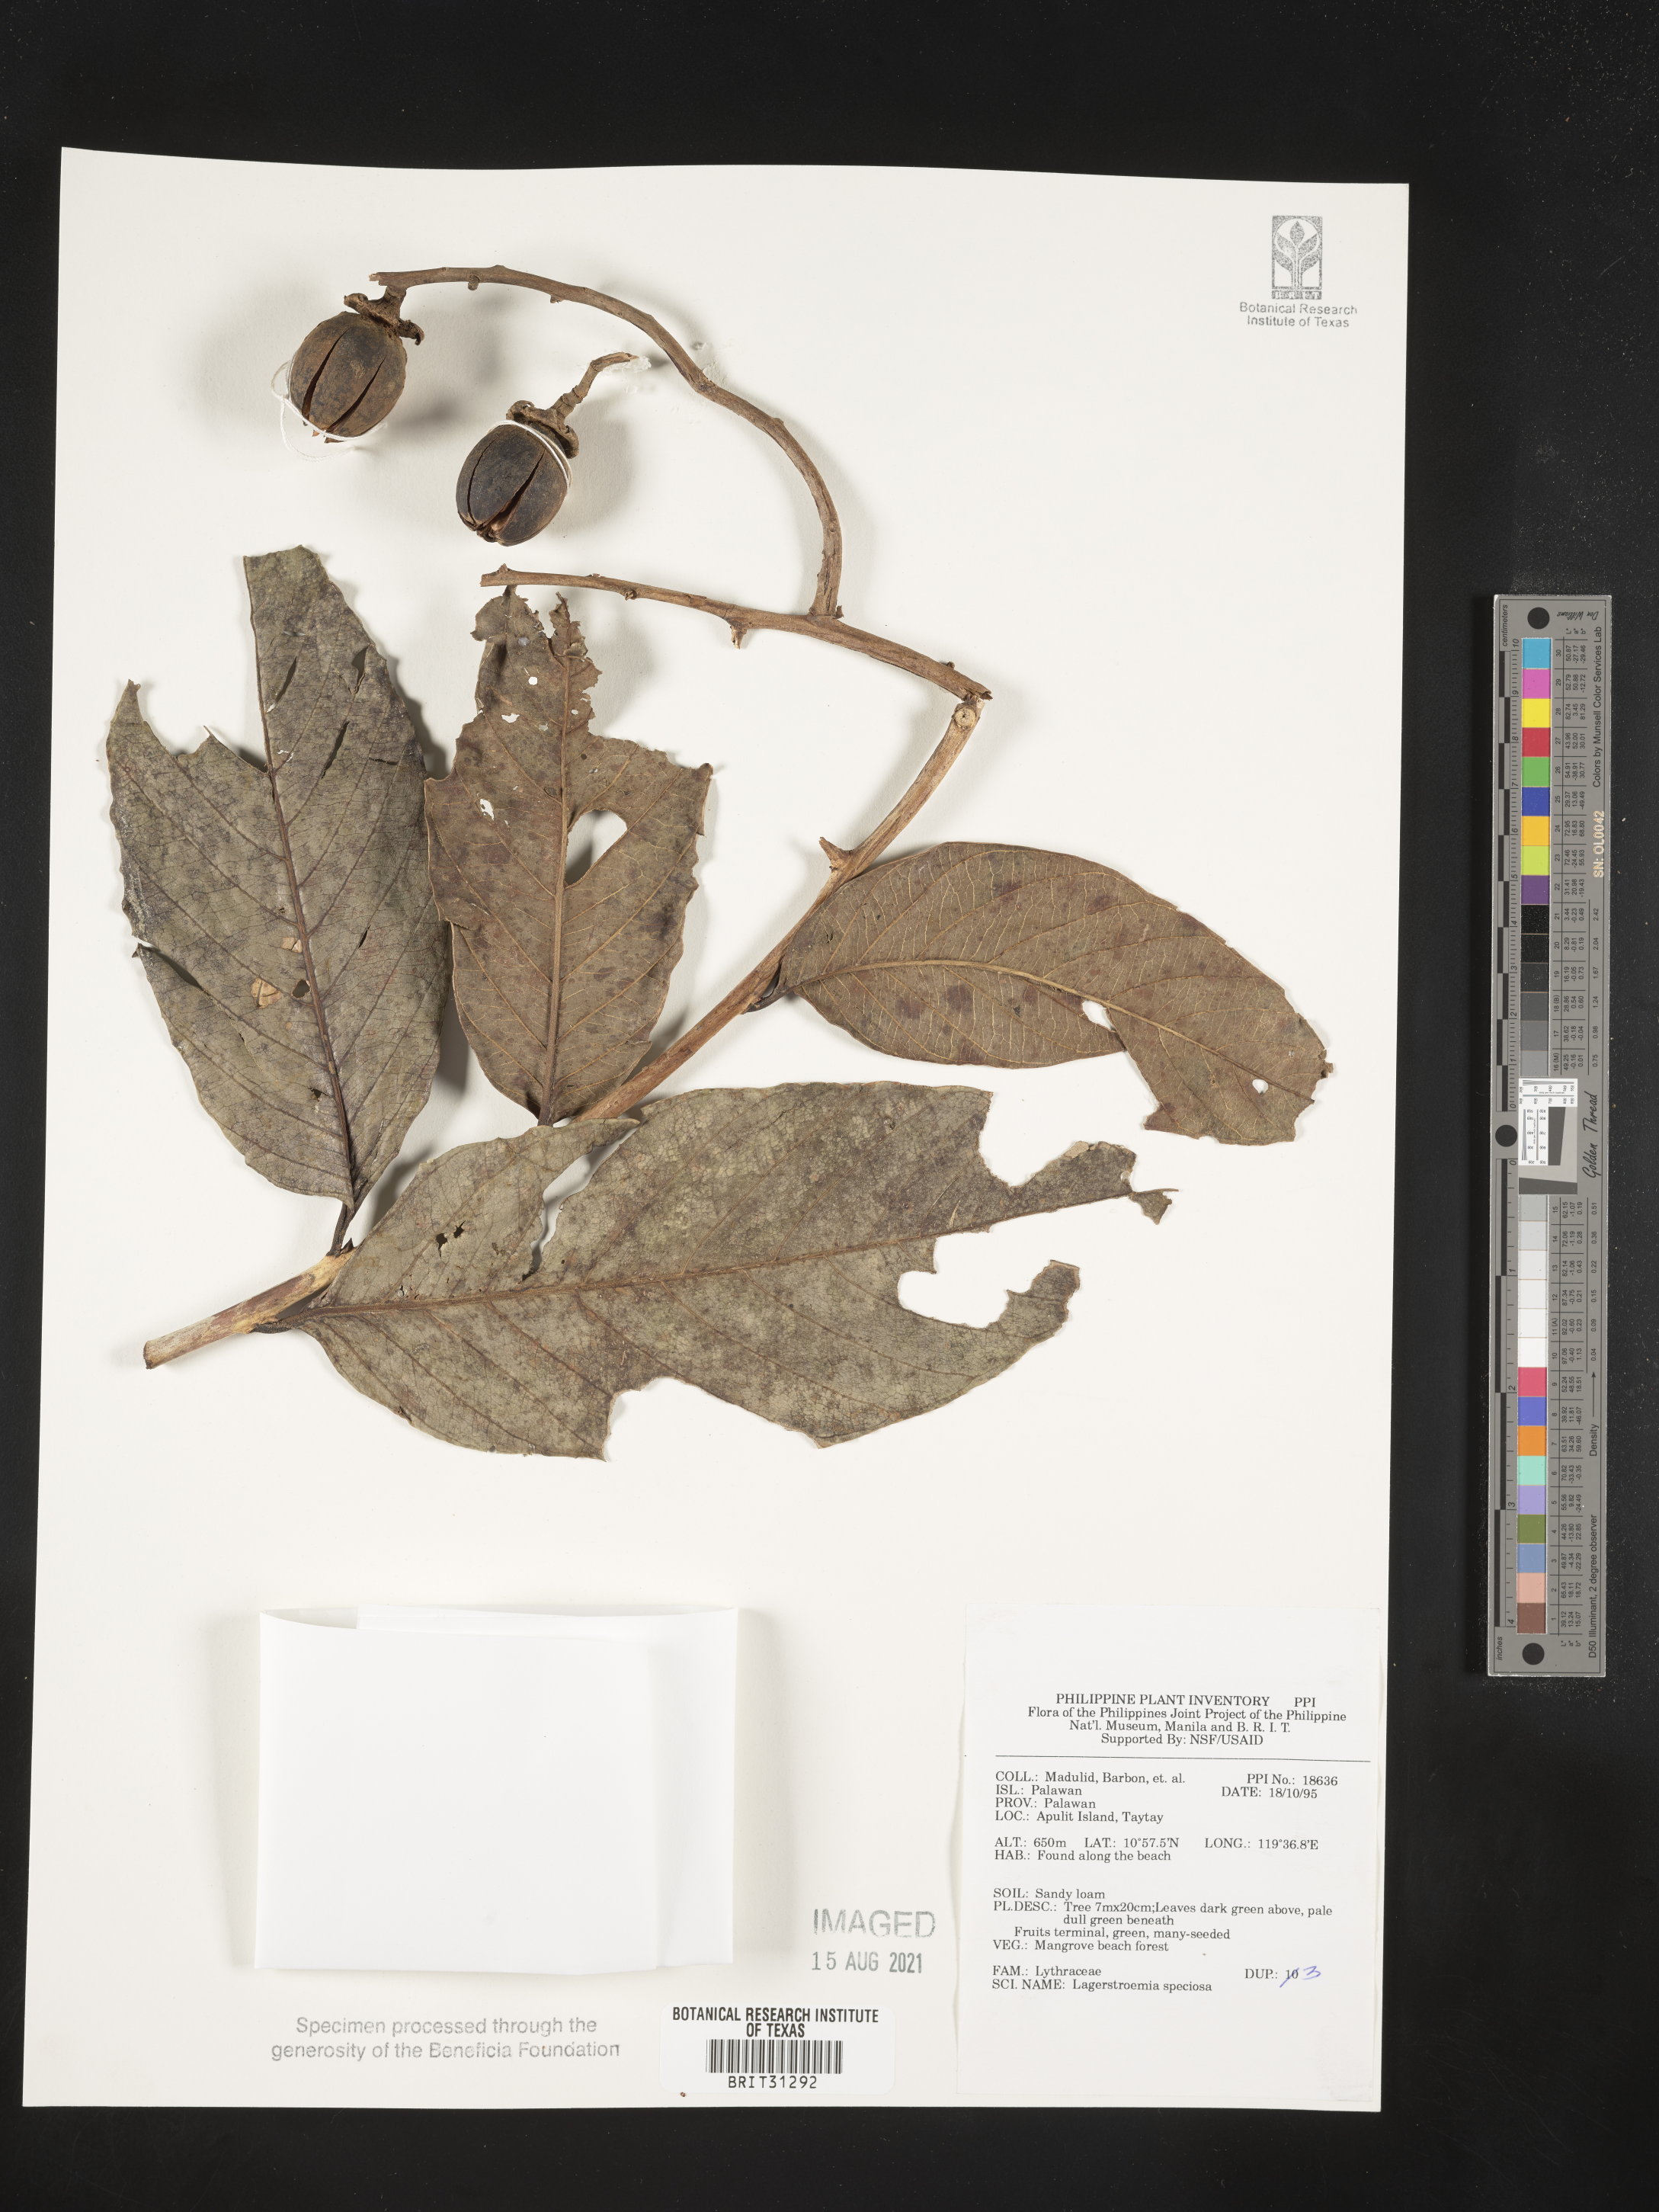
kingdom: Plantae
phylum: Tracheophyta
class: Magnoliopsida
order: Myrtales
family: Lythraceae
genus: Lagerstroemia
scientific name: Lagerstroemia speciosa
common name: Queen's crape-myrtle
